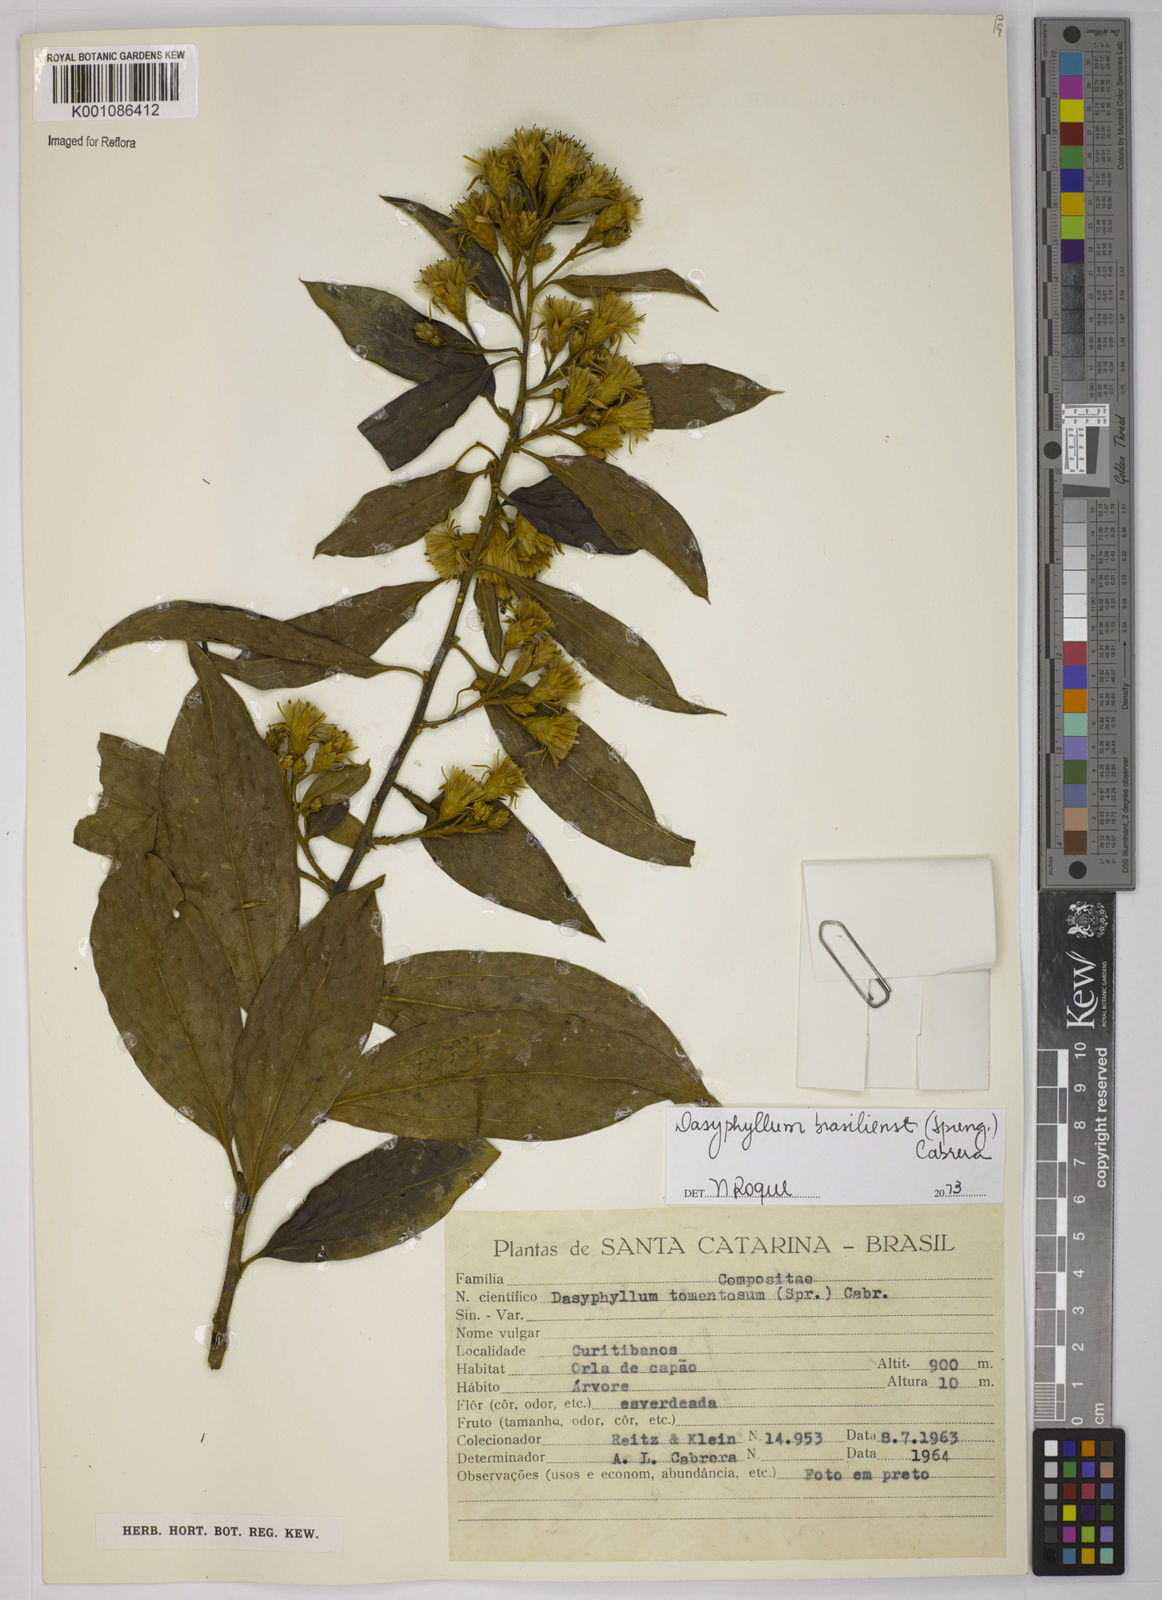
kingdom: Plantae
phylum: Tracheophyta
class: Magnoliopsida
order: Asterales
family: Asteraceae
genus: Dasyphyllum
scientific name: Dasyphyllum brasiliense
